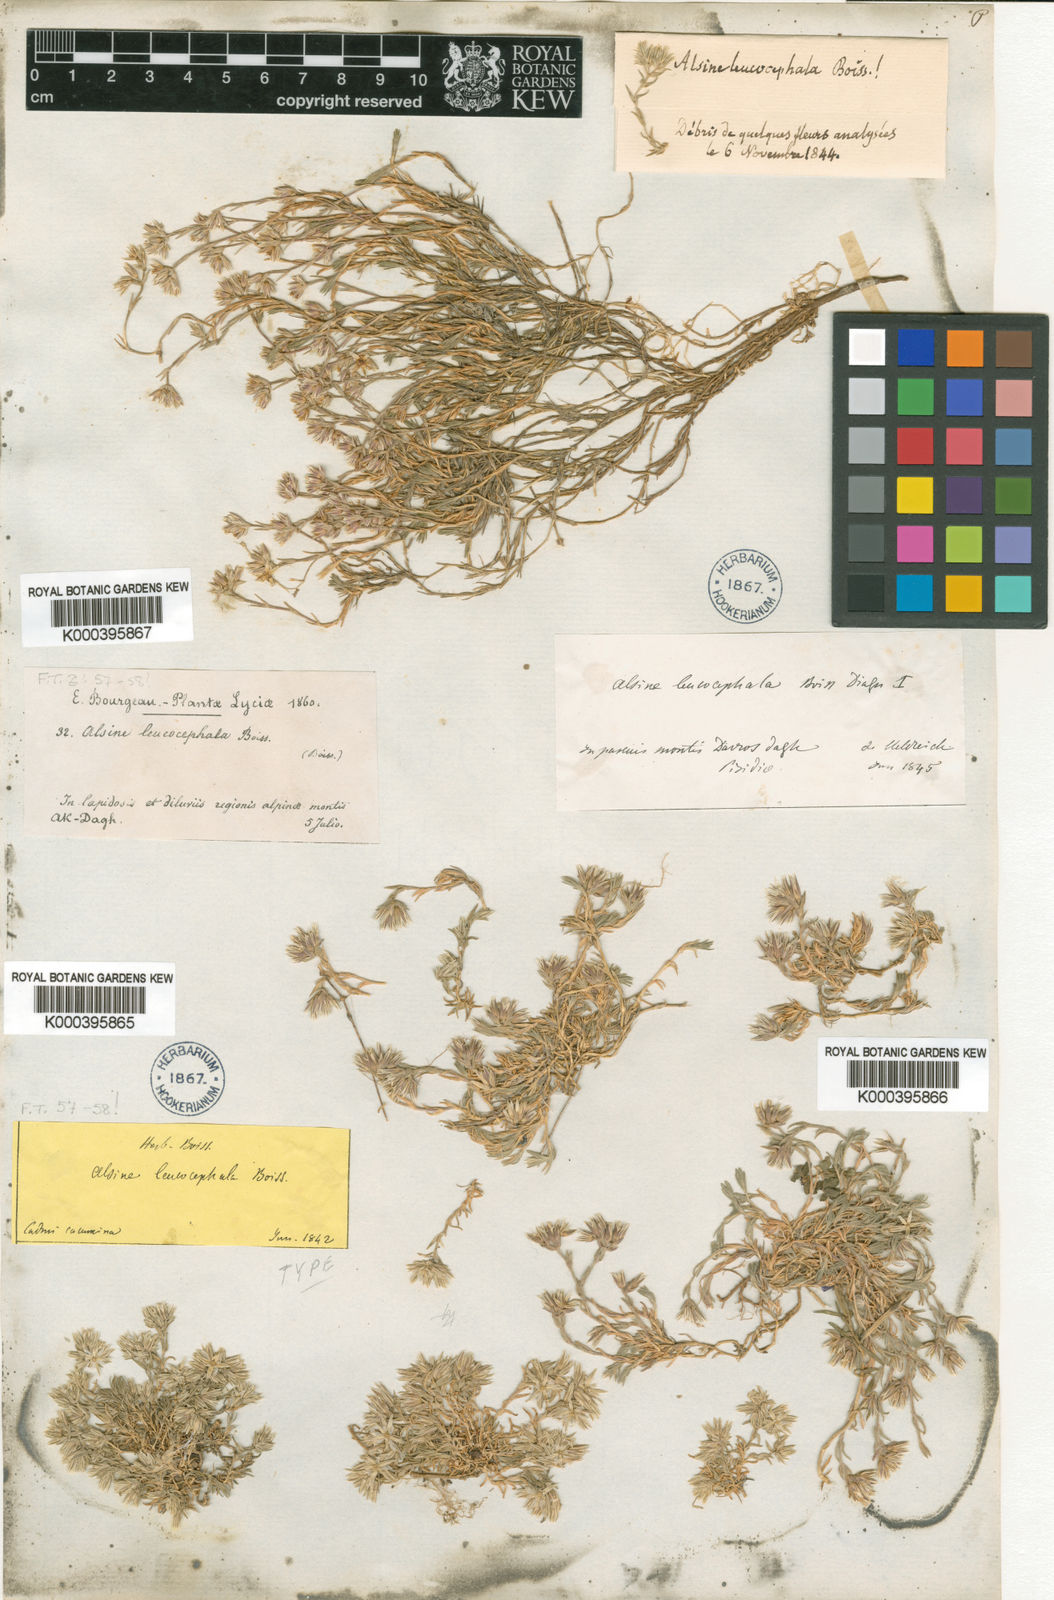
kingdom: Plantae
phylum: Tracheophyta
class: Magnoliopsida
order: Caryophyllales
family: Caryophyllaceae
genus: Minuartia
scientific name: Minuartia leucocephala
